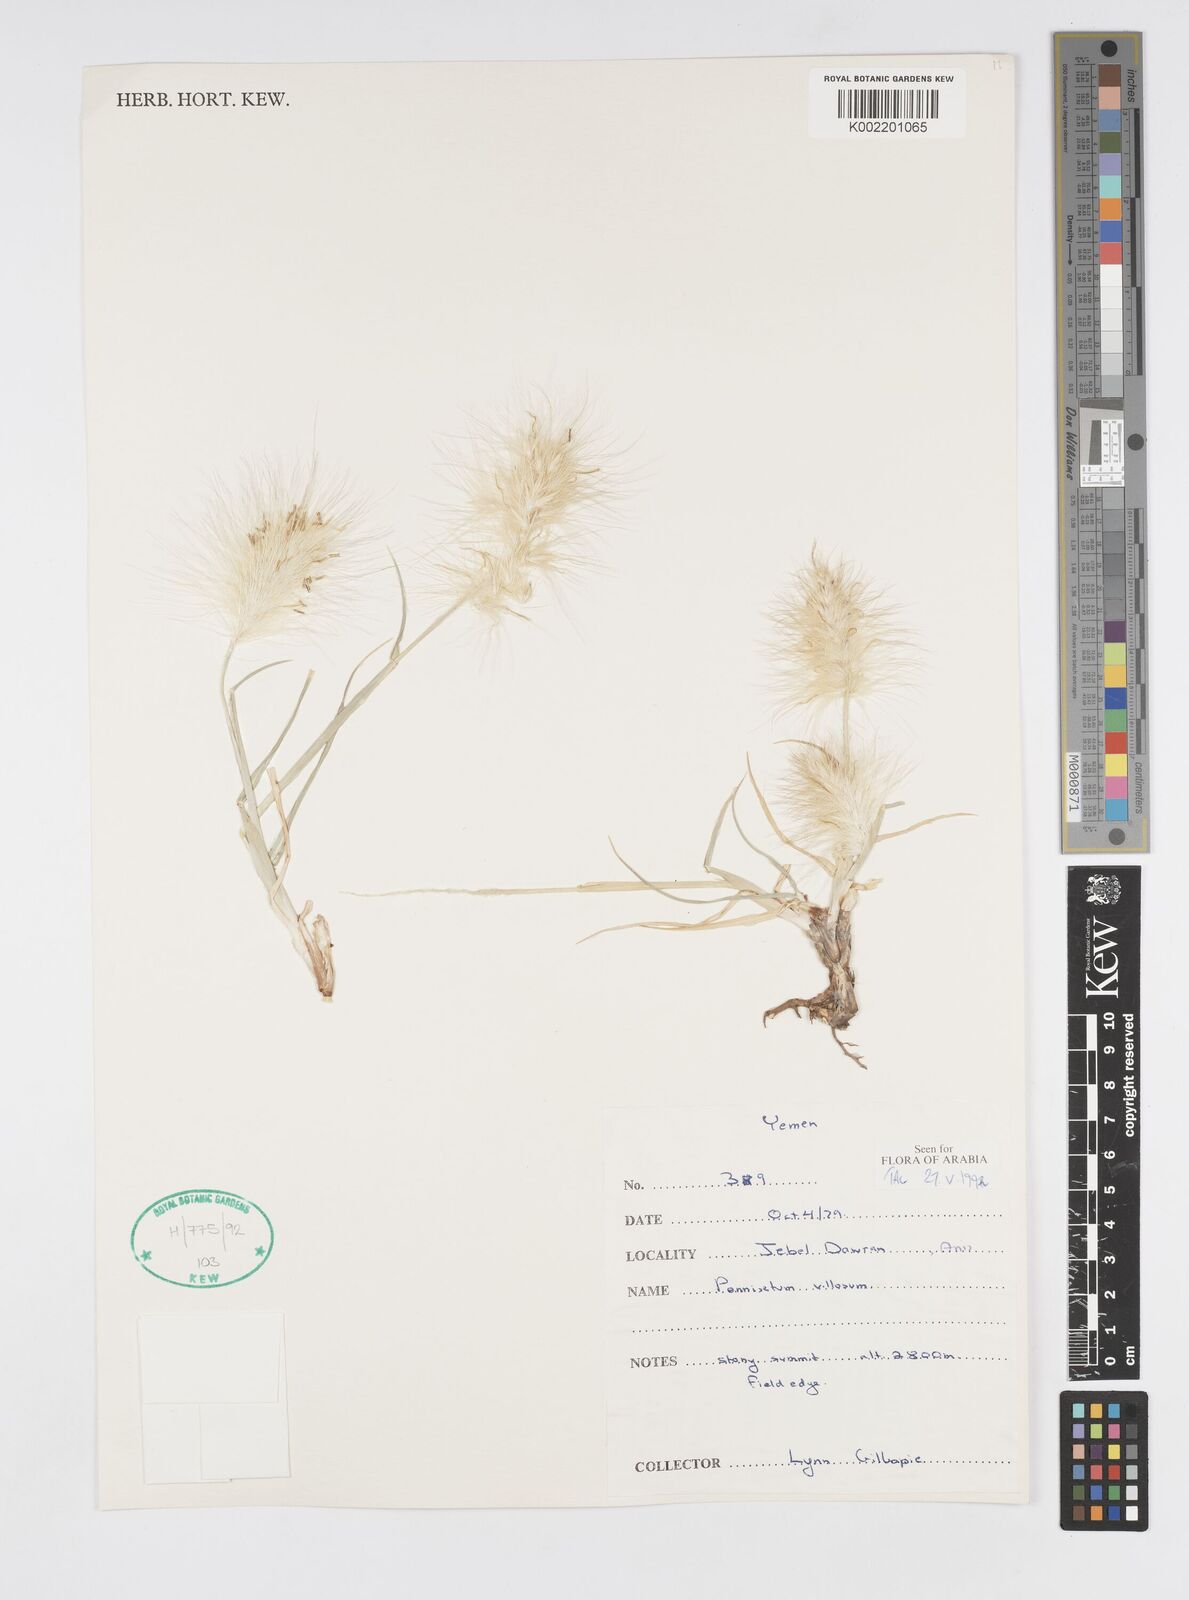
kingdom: Plantae
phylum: Tracheophyta
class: Liliopsida
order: Poales
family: Poaceae
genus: Cenchrus
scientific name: Cenchrus longisetus
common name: Feathertop
